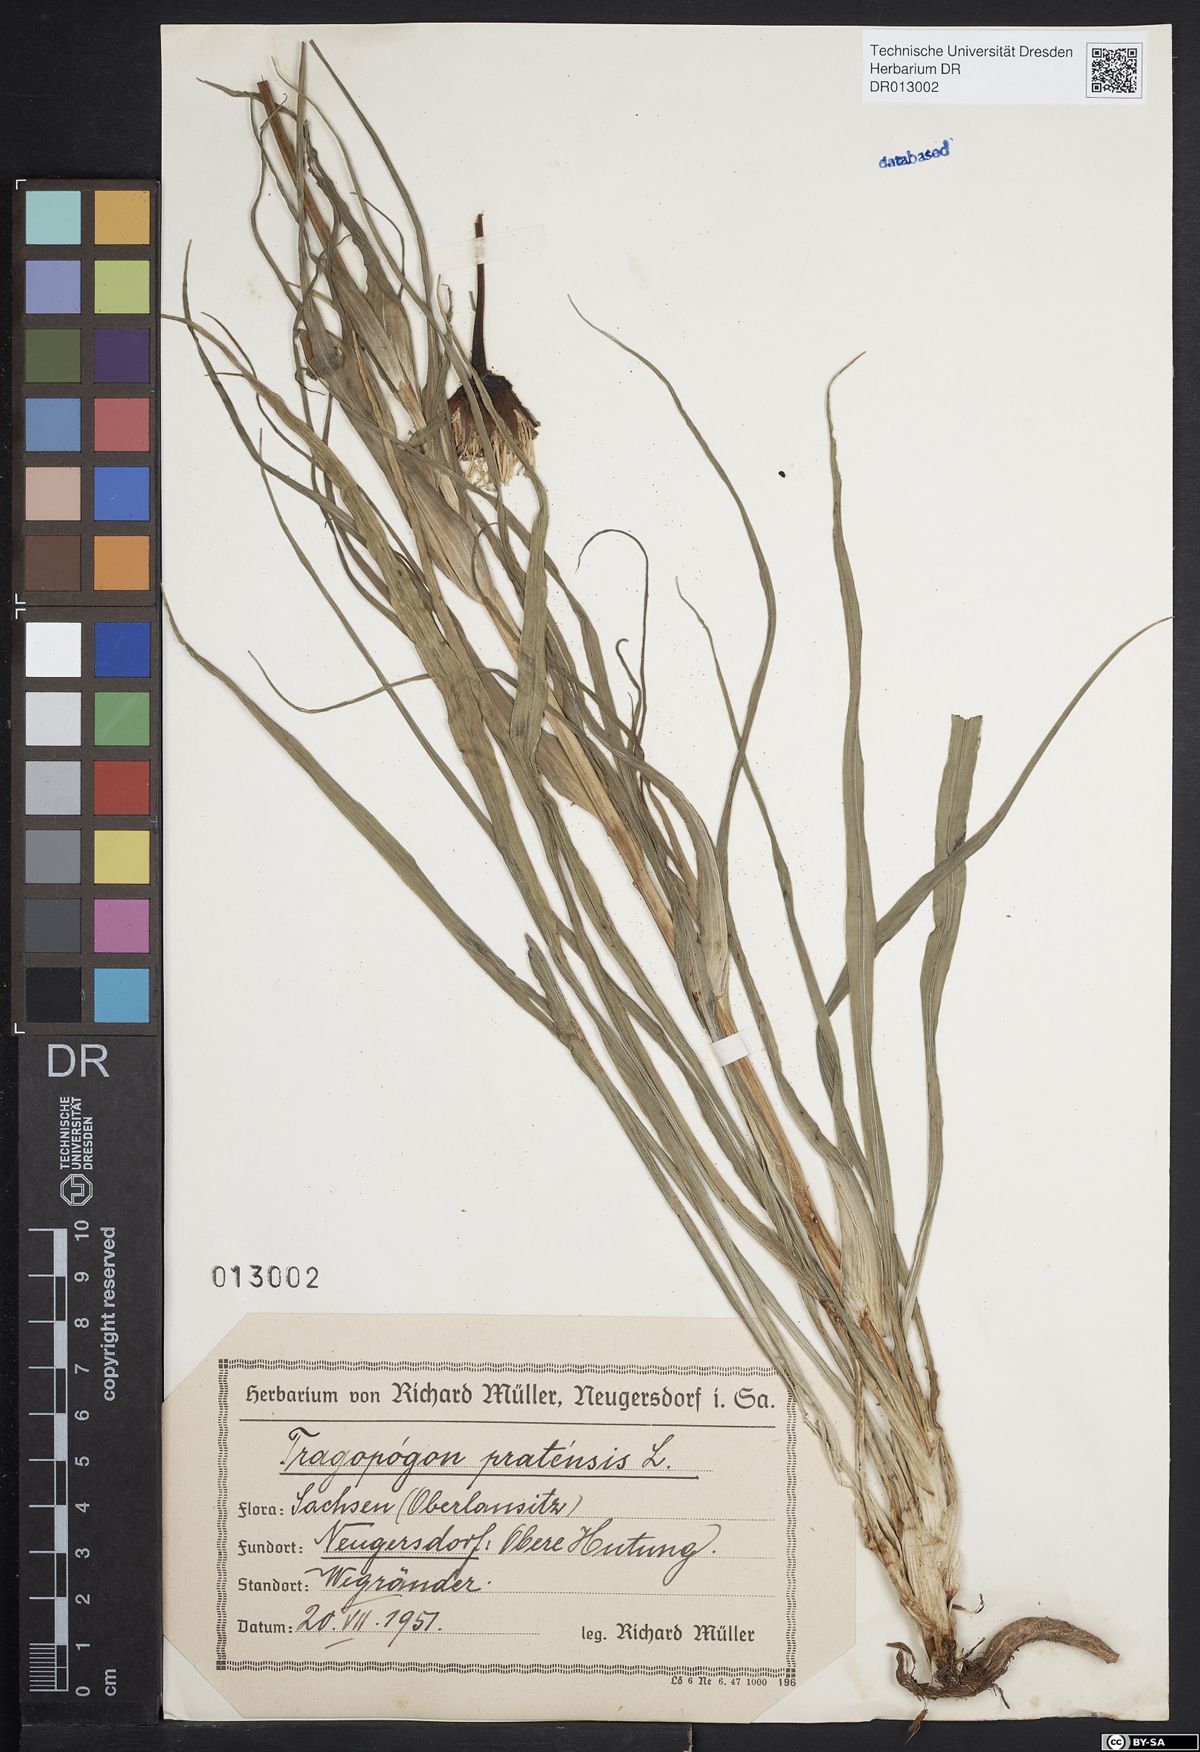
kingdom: Plantae
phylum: Tracheophyta
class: Magnoliopsida
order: Asterales
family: Asteraceae
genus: Tragopogon
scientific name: Tragopogon pratensis
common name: Goat's-beard
